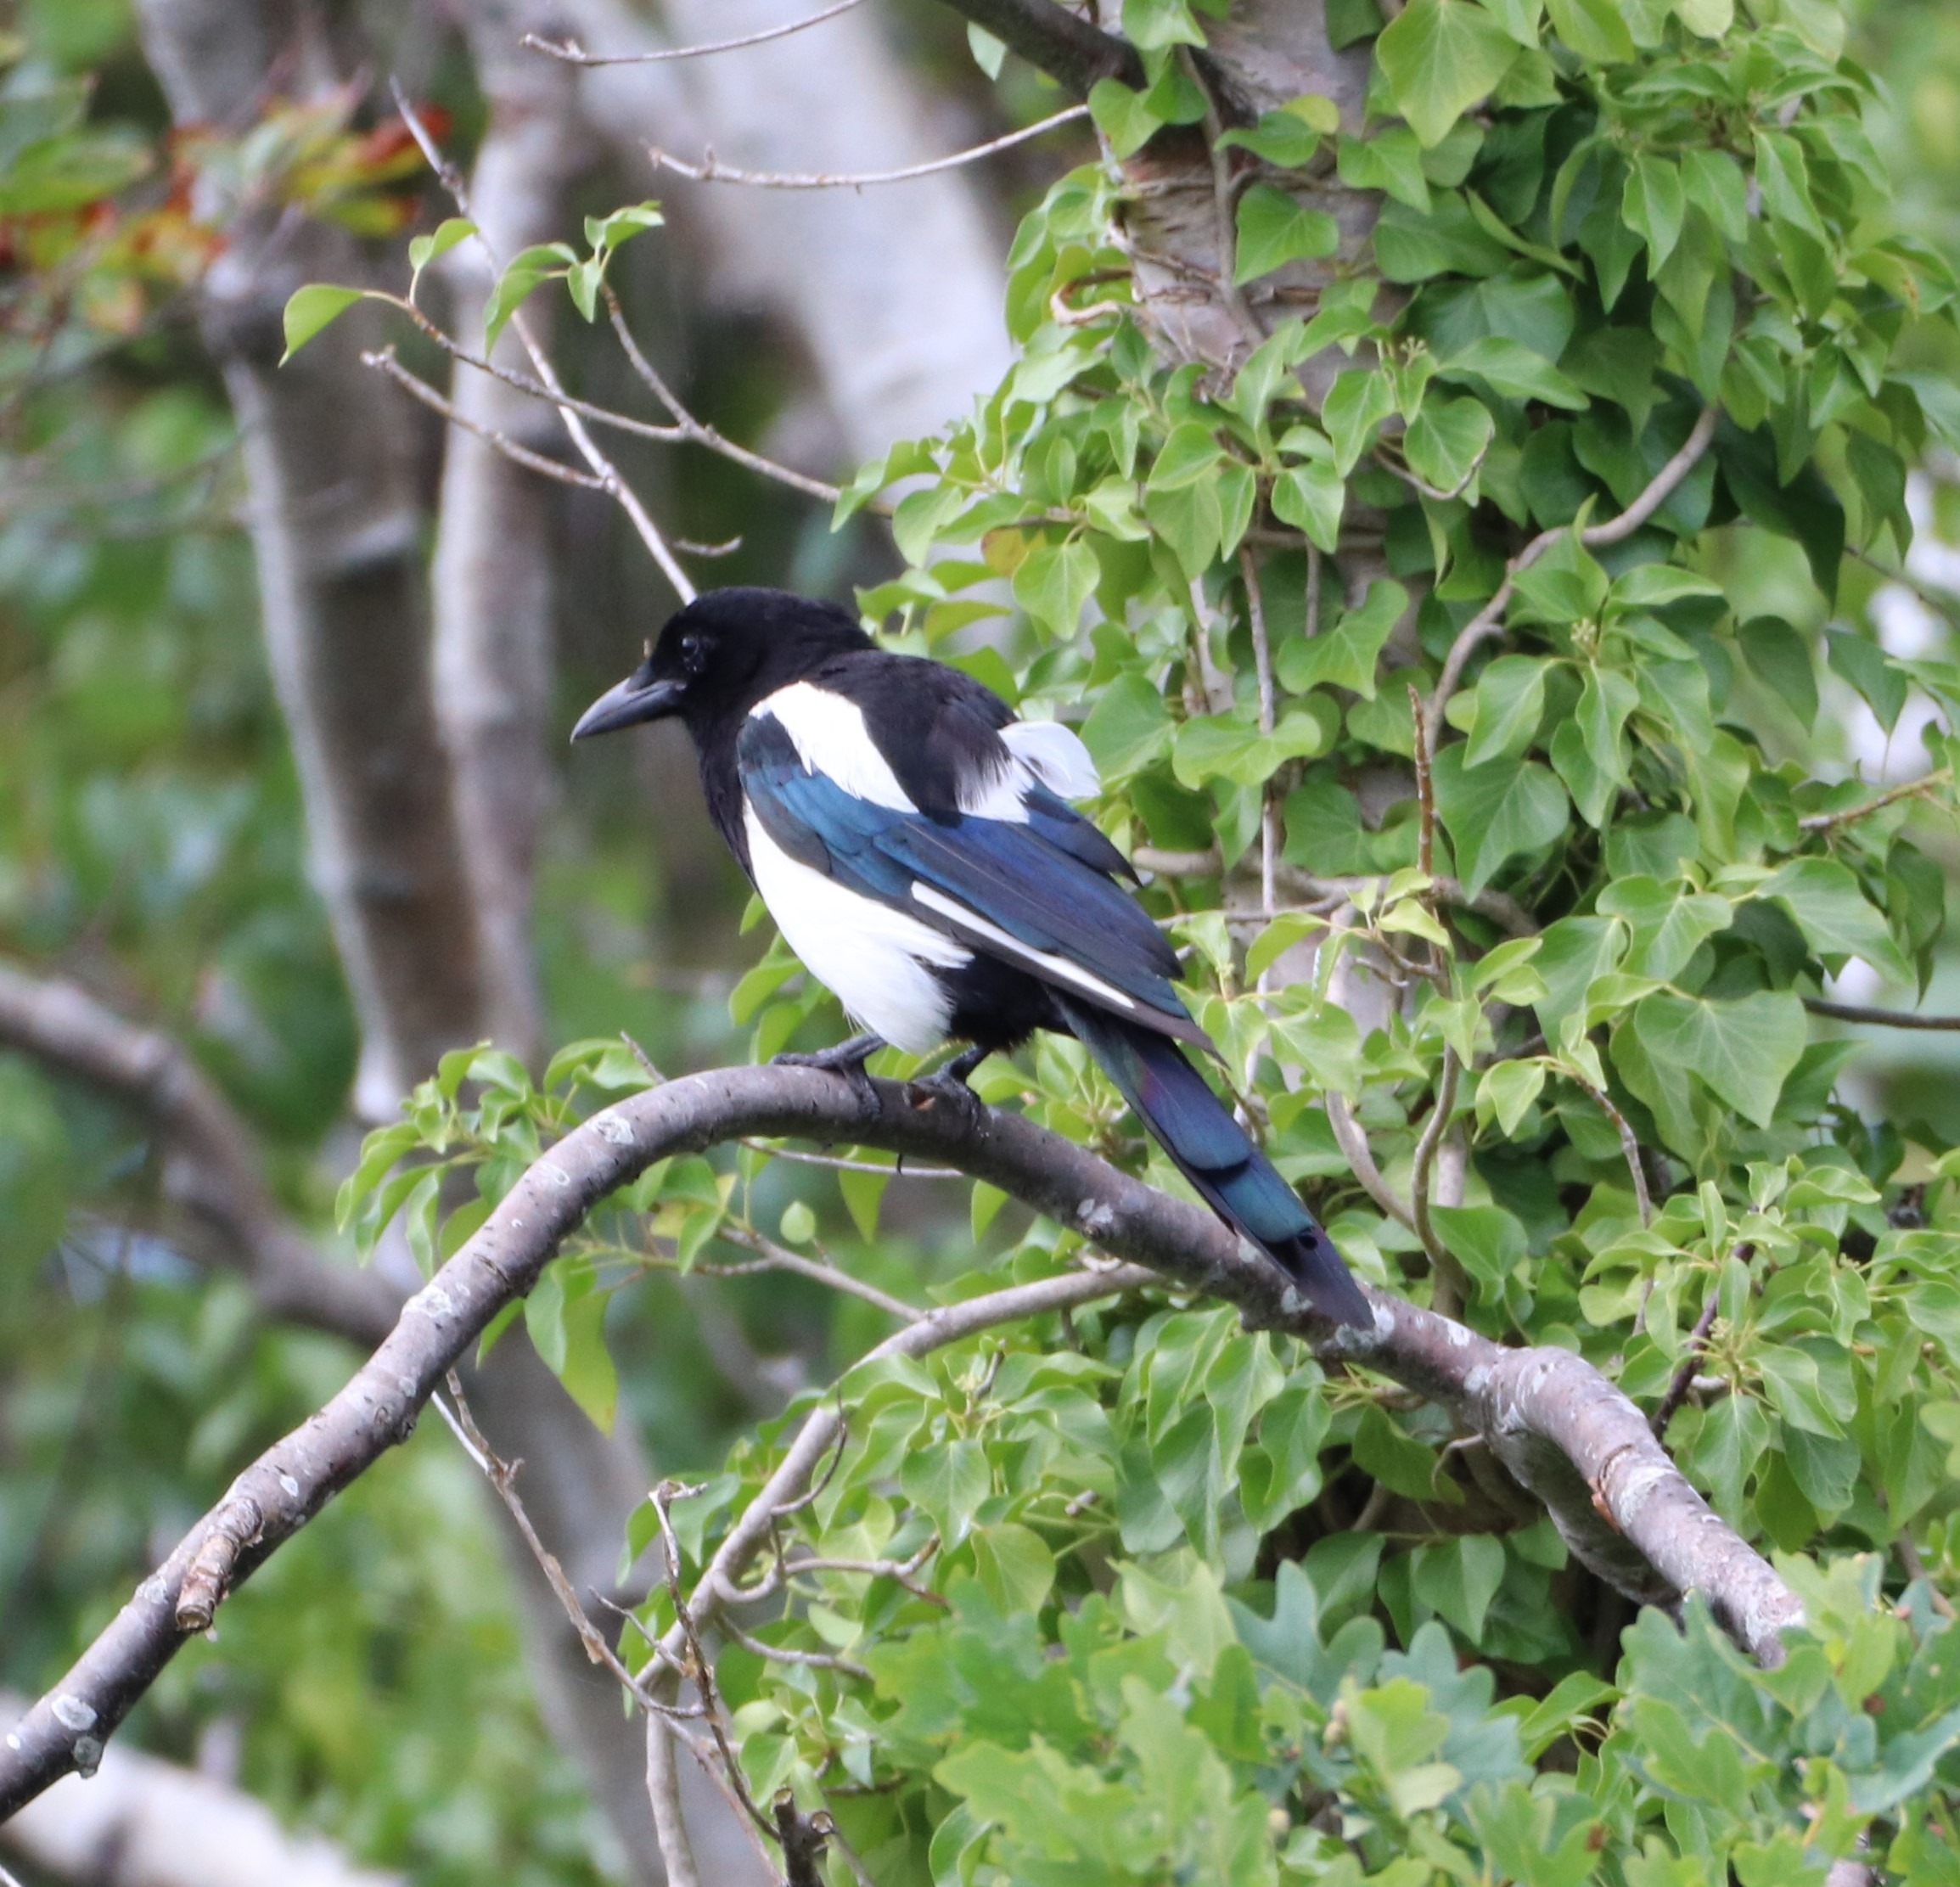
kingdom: Animalia
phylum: Chordata
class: Aves
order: Passeriformes
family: Corvidae
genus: Pica
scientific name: Pica pica
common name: Husskade
